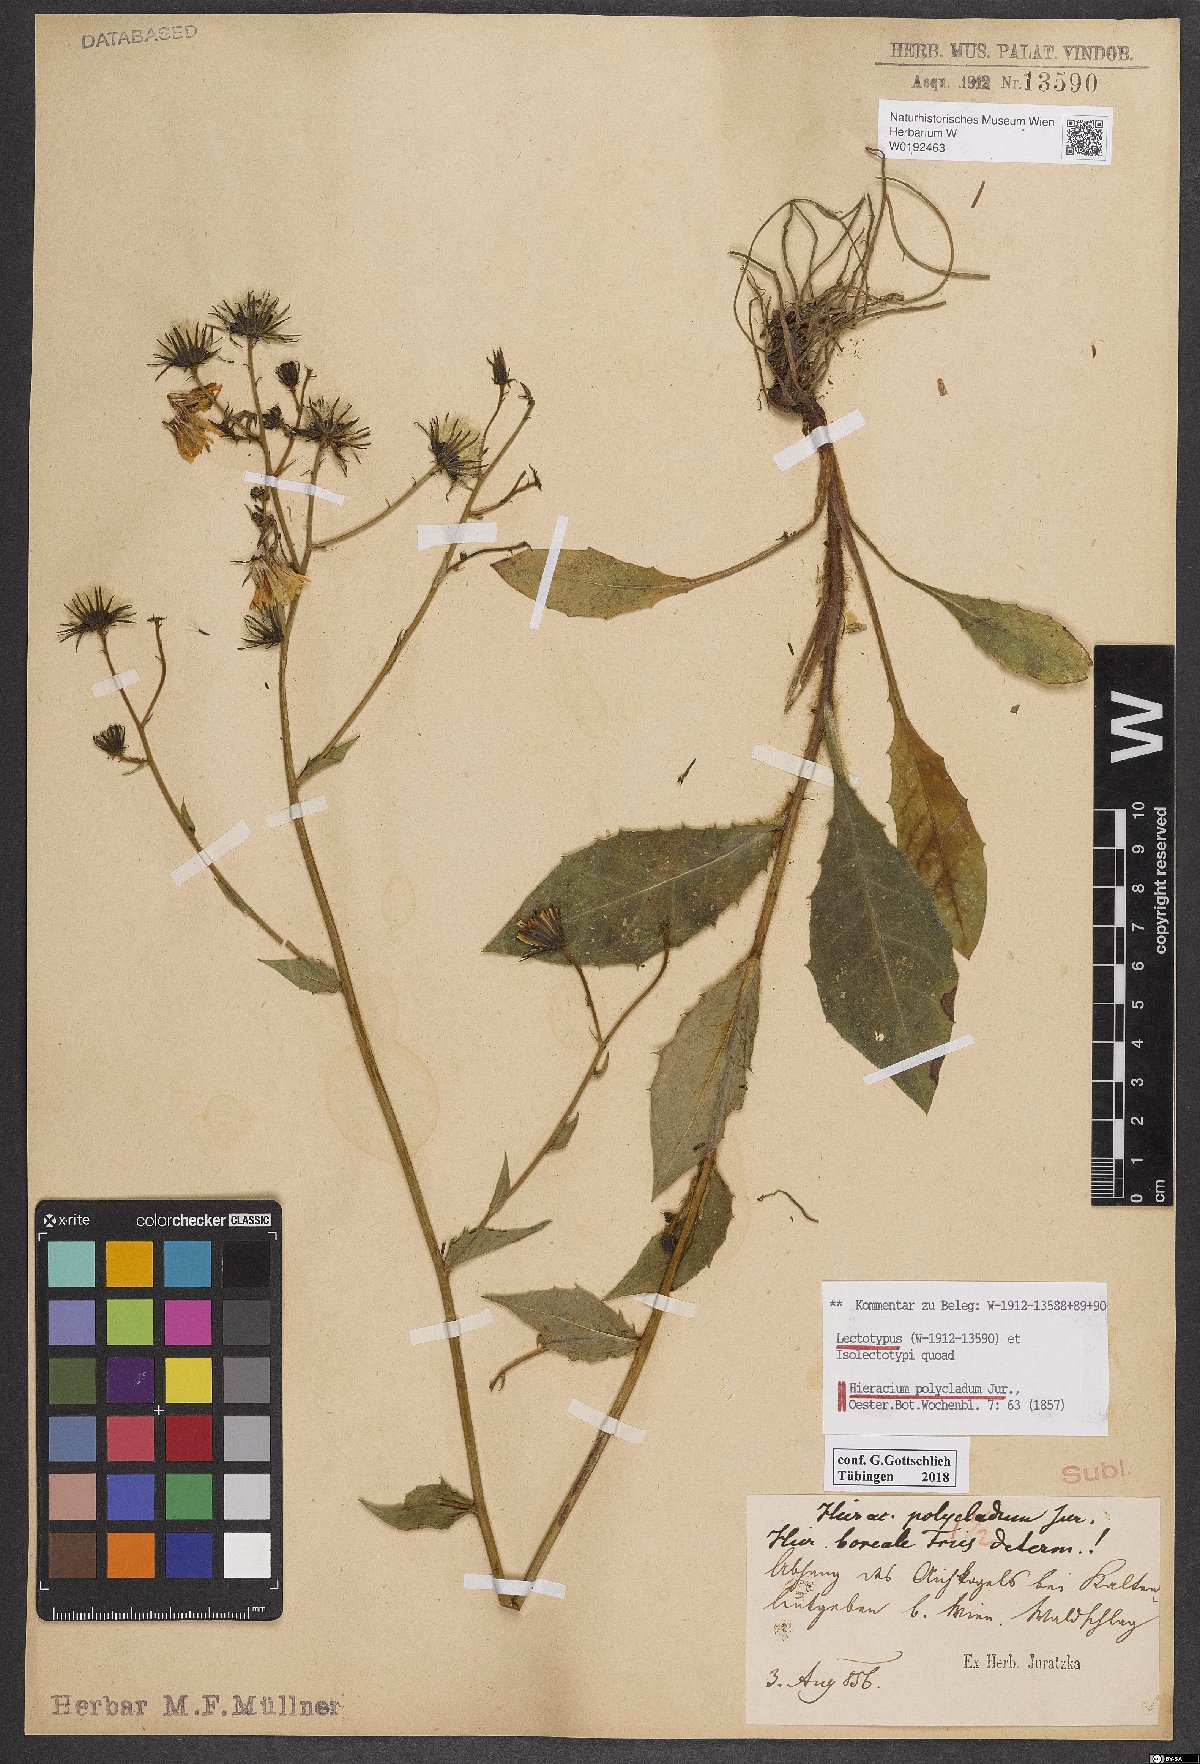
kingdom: Plantae
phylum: Tracheophyta
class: Magnoliopsida
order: Asterales
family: Asteraceae
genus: Hieracium
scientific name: Hieracium polycladum
